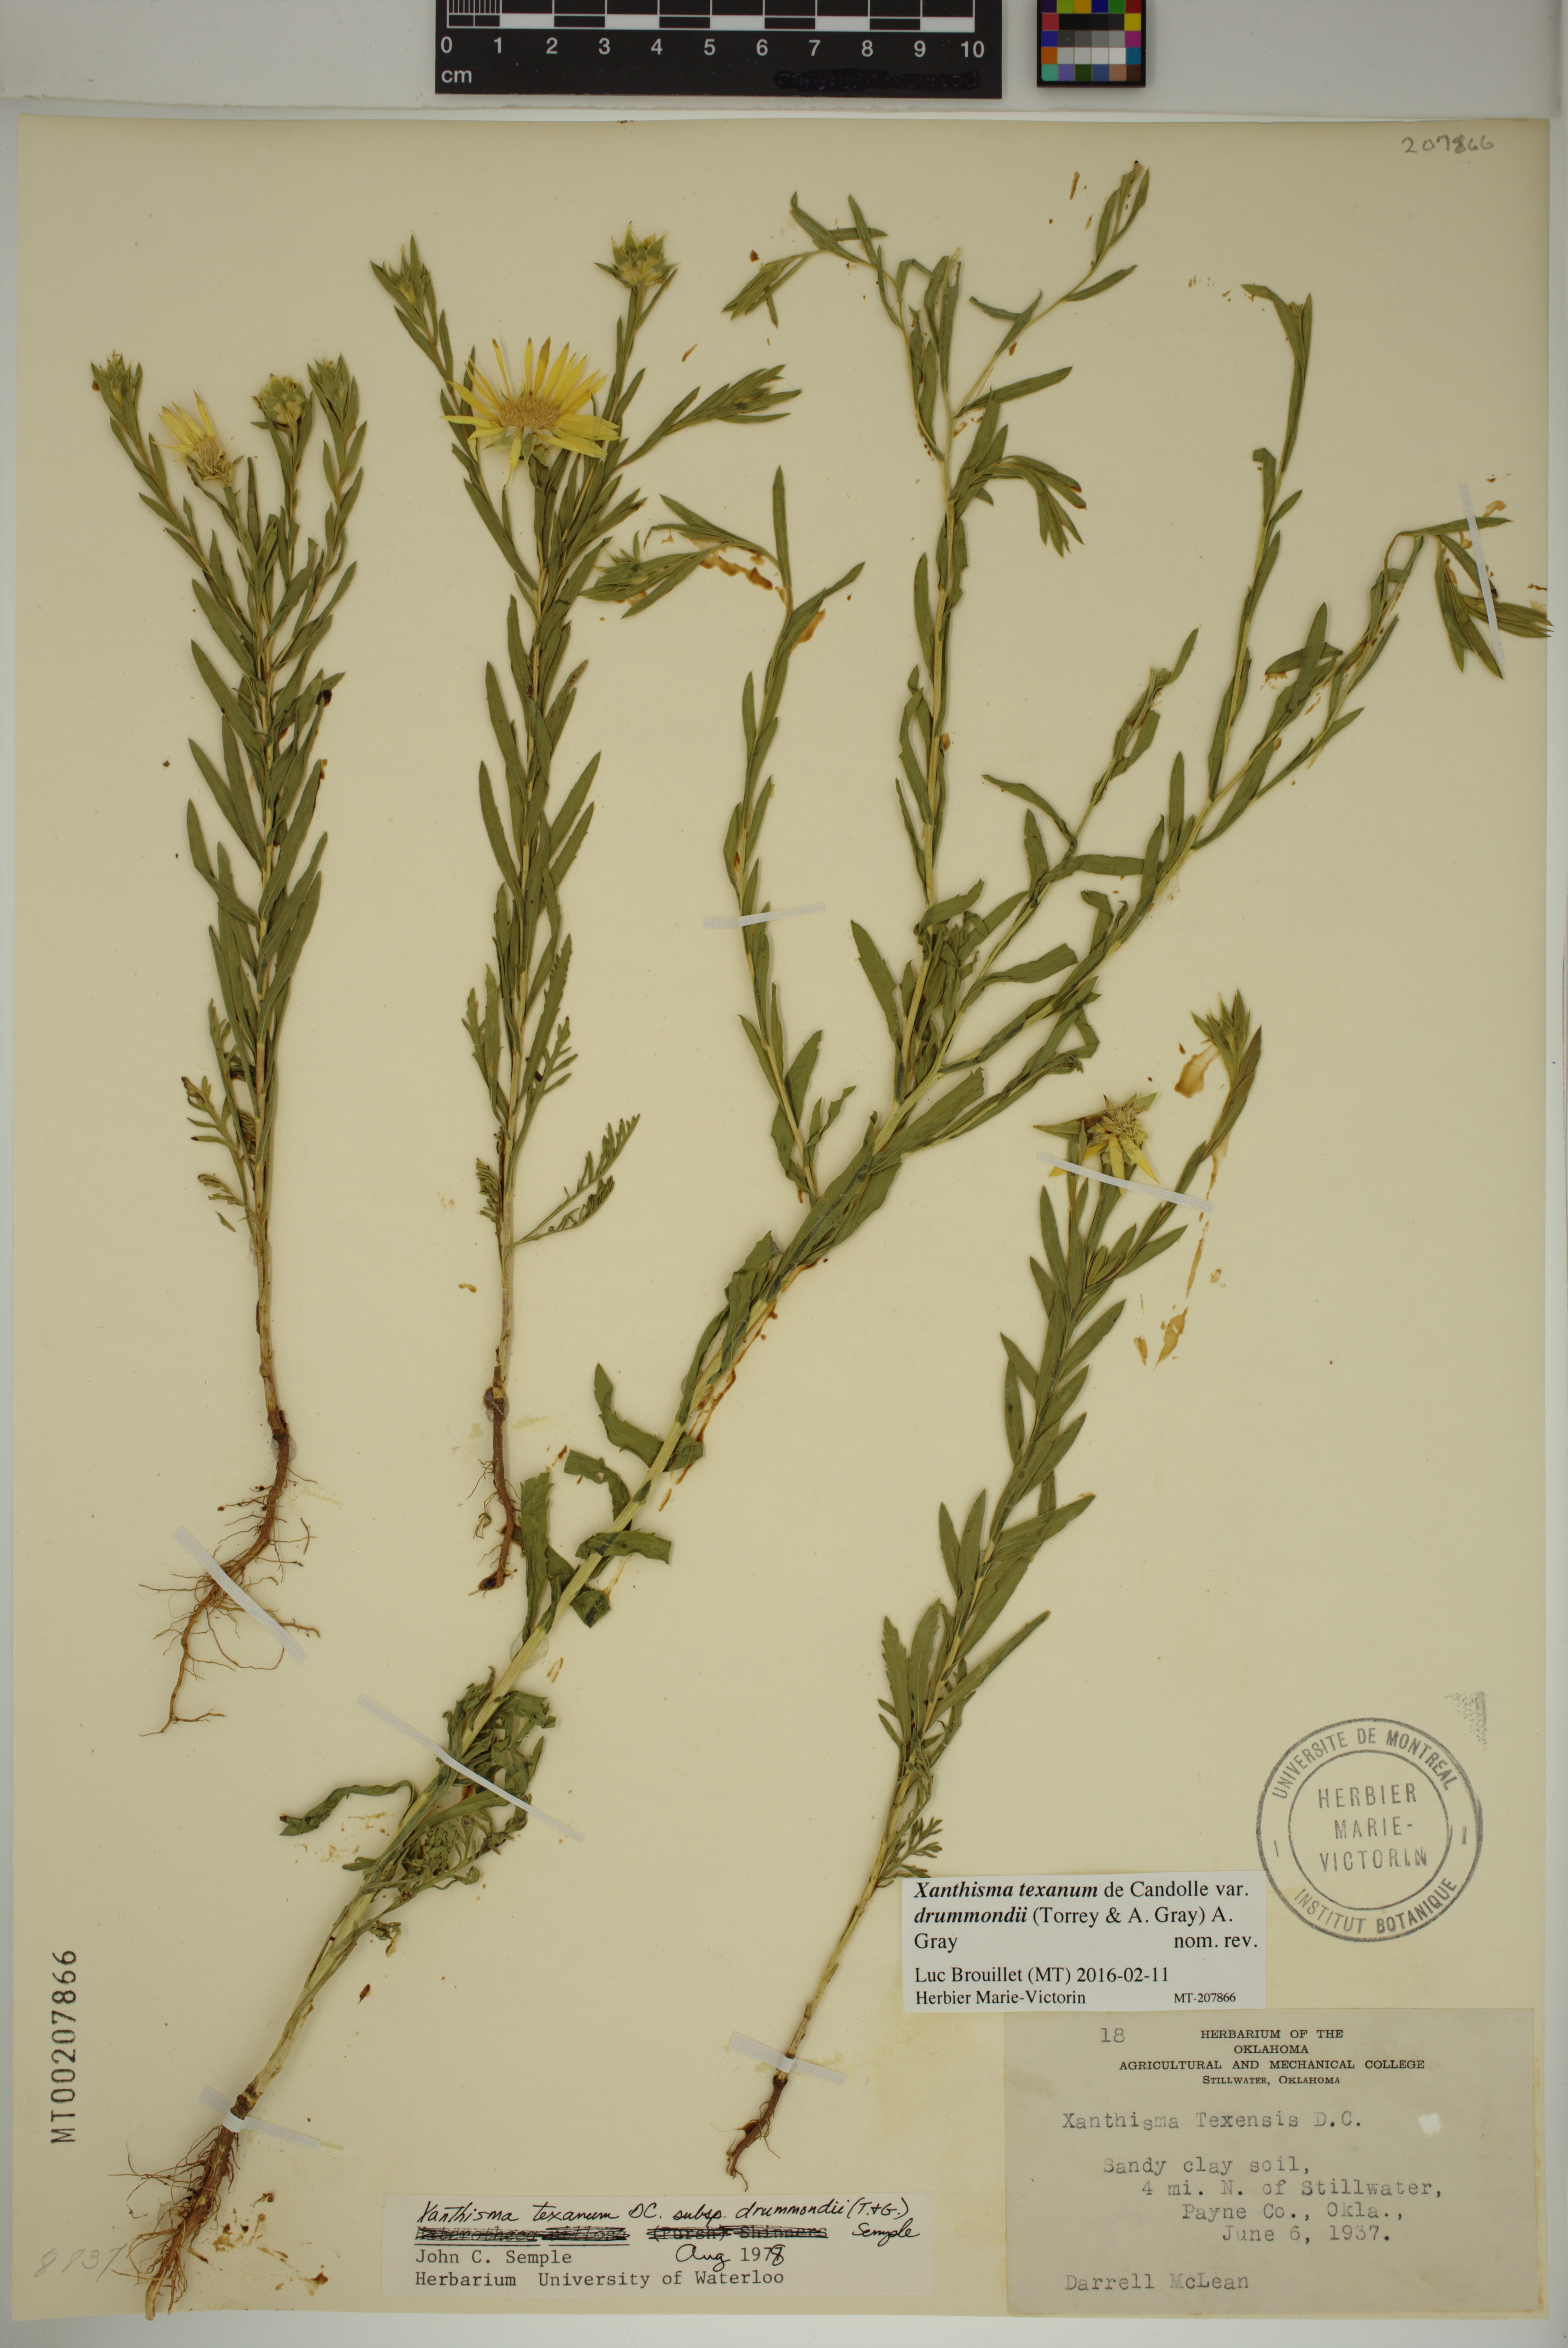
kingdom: Plantae
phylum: Tracheophyta
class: Magnoliopsida
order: Asterales
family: Asteraceae
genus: Xanthisma
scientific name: Xanthisma texanum
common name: Texas sleepy daisy
